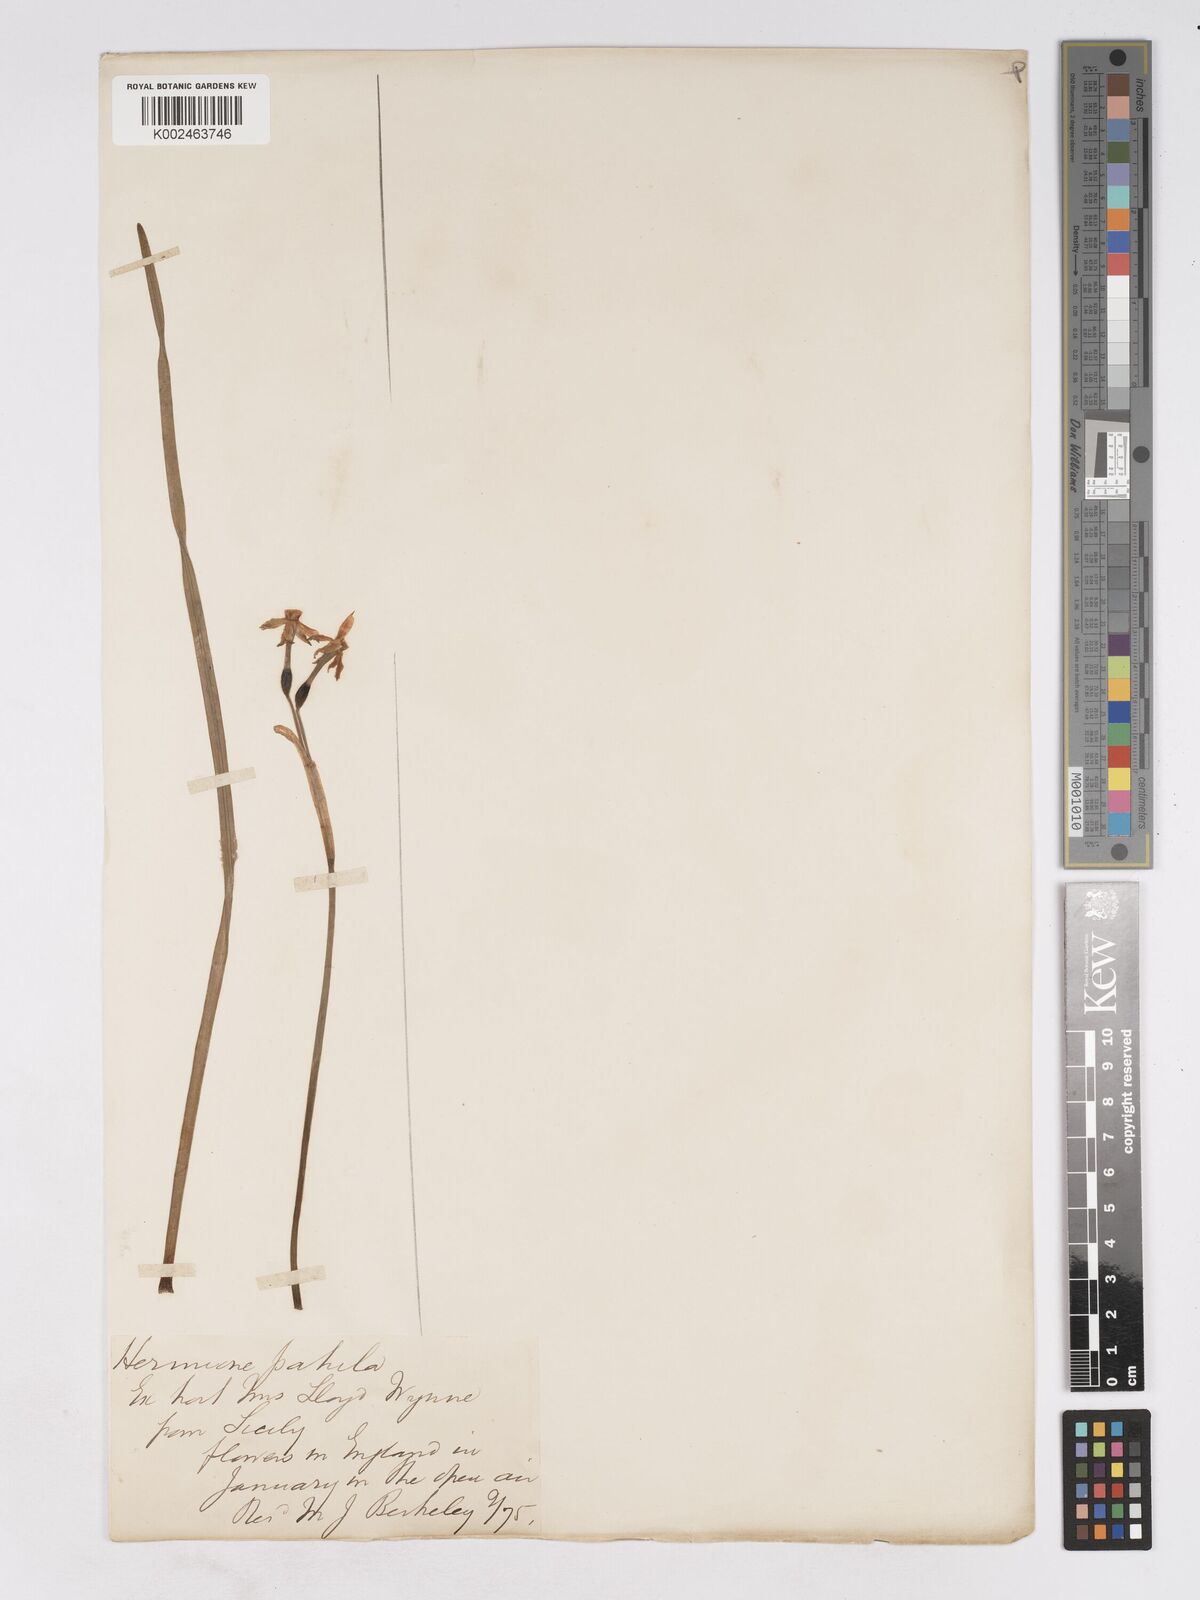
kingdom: Plantae
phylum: Tracheophyta
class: Liliopsida
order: Asparagales
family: Amaryllidaceae
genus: Narcissus
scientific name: Narcissus
